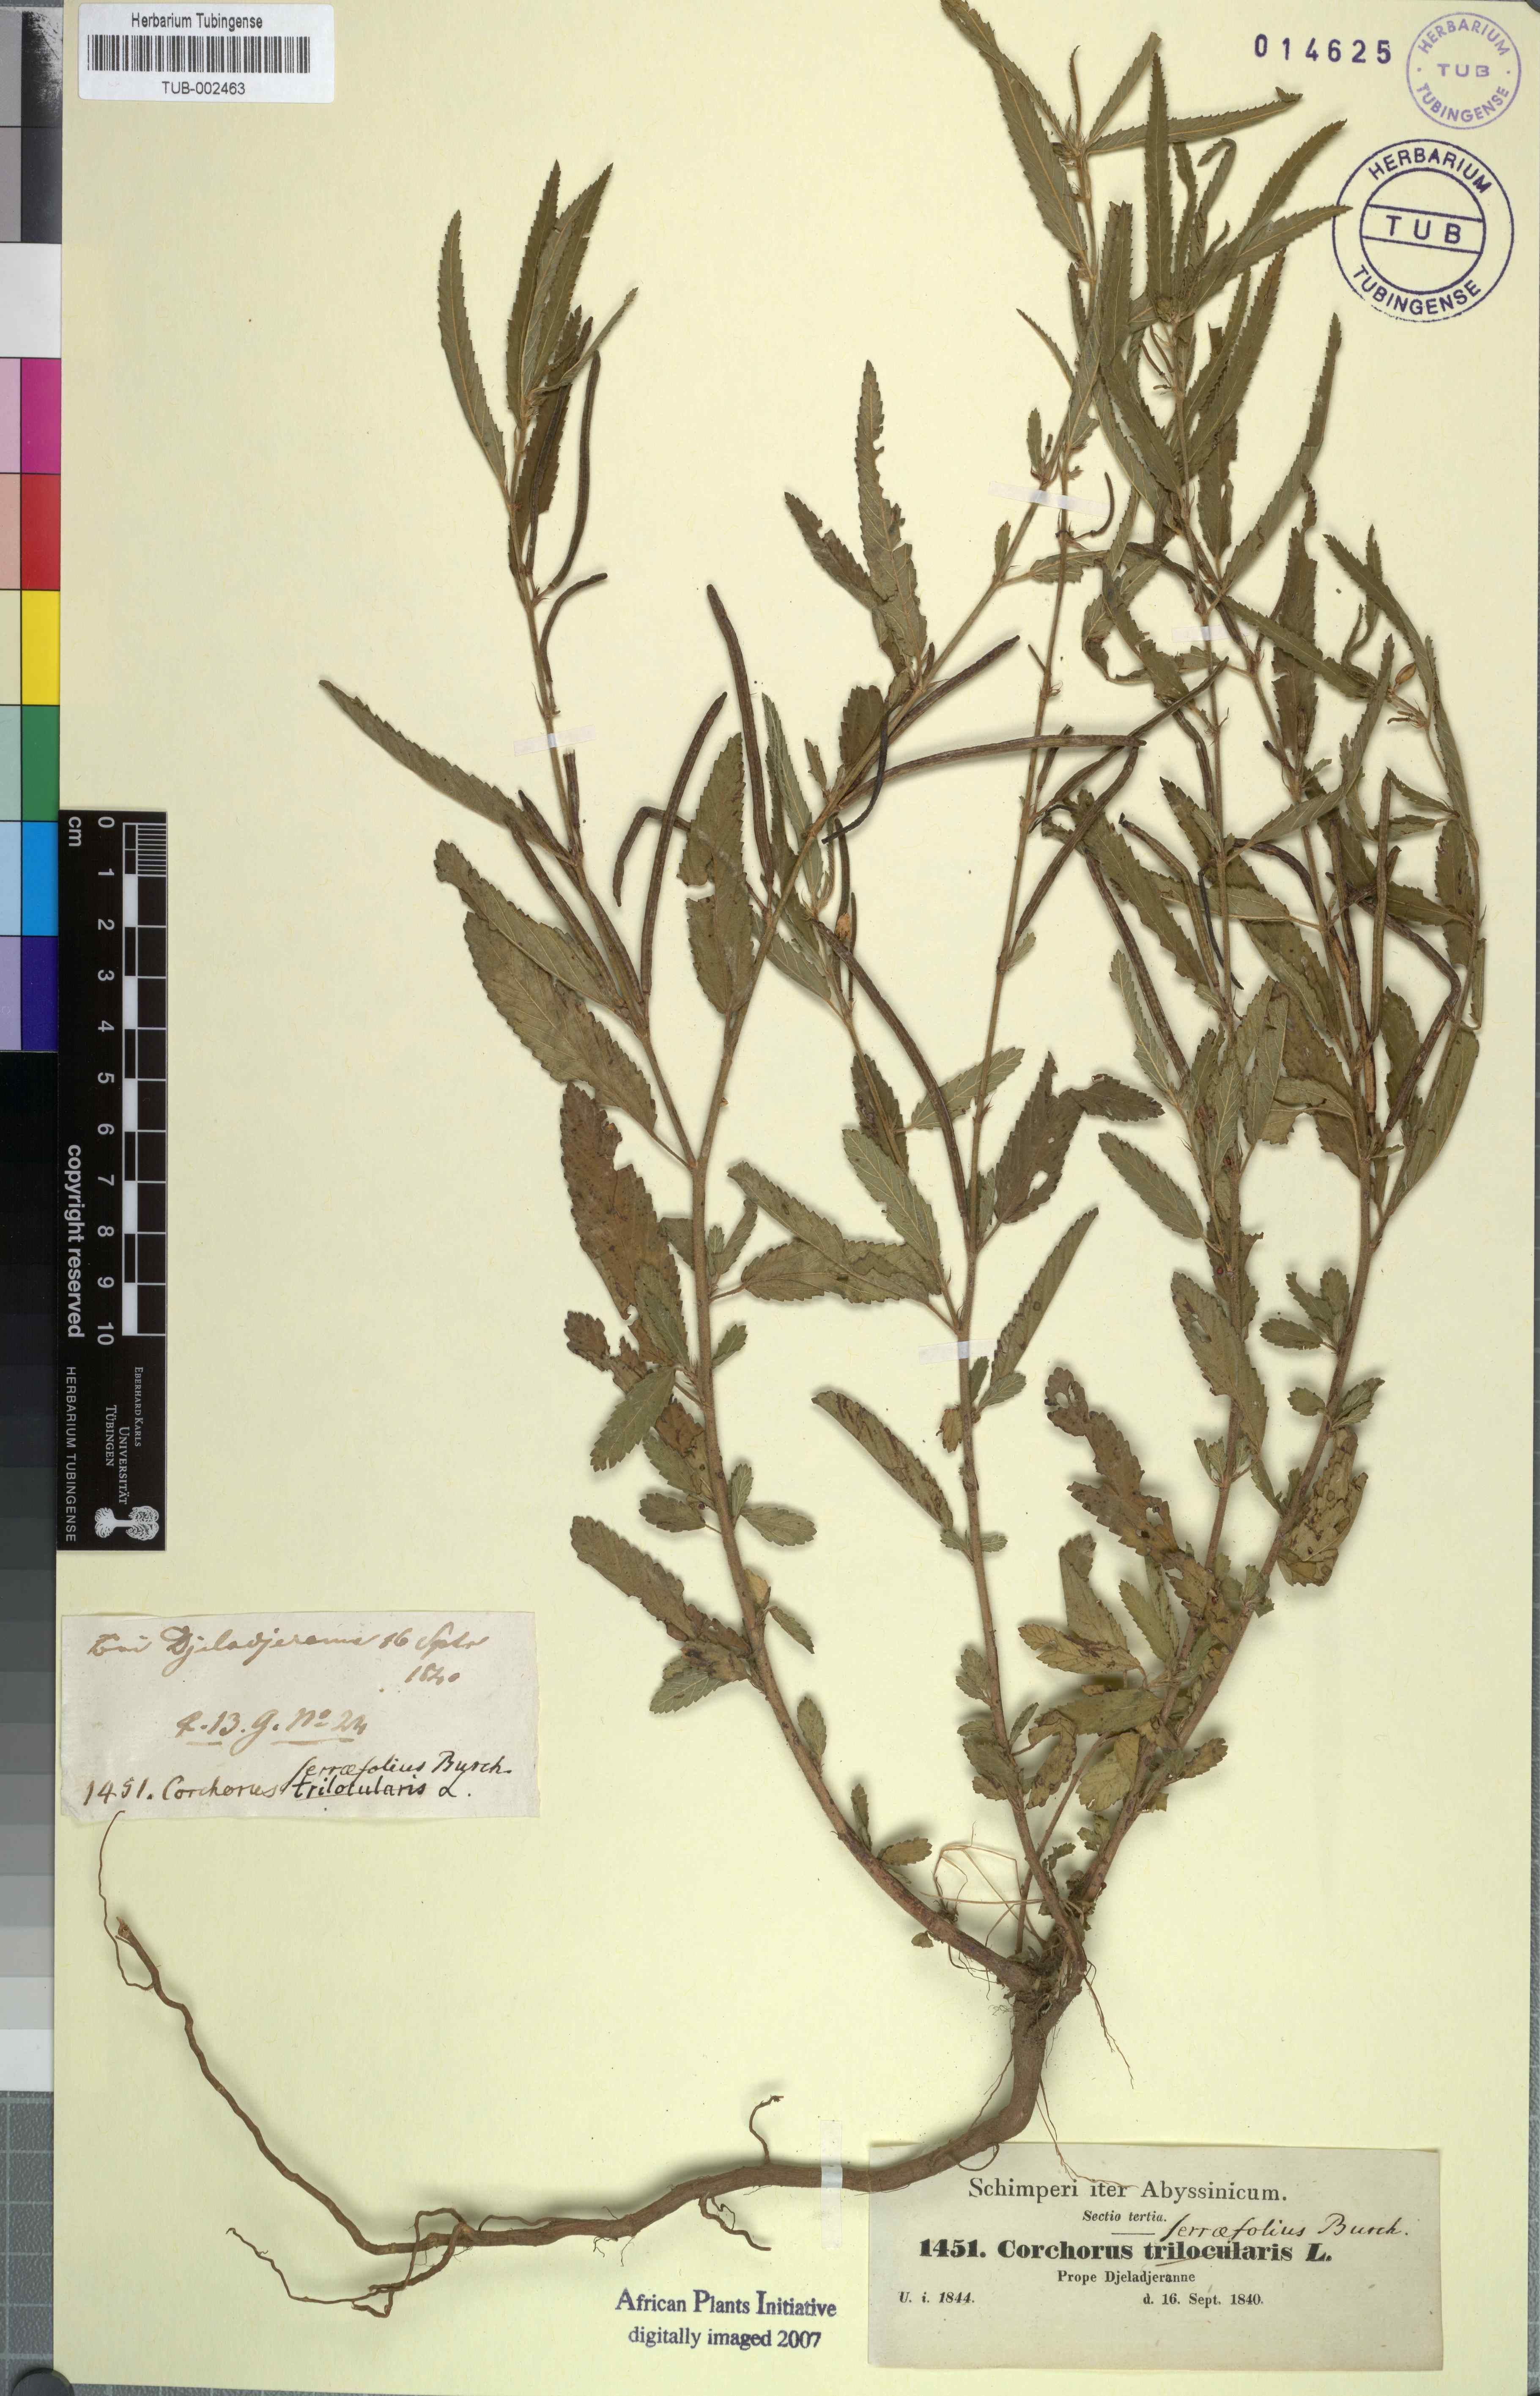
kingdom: Plantae
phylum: Tracheophyta
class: Magnoliopsida
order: Malvales
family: Malvaceae
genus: Corchorus
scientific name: Corchorus trilocularis
